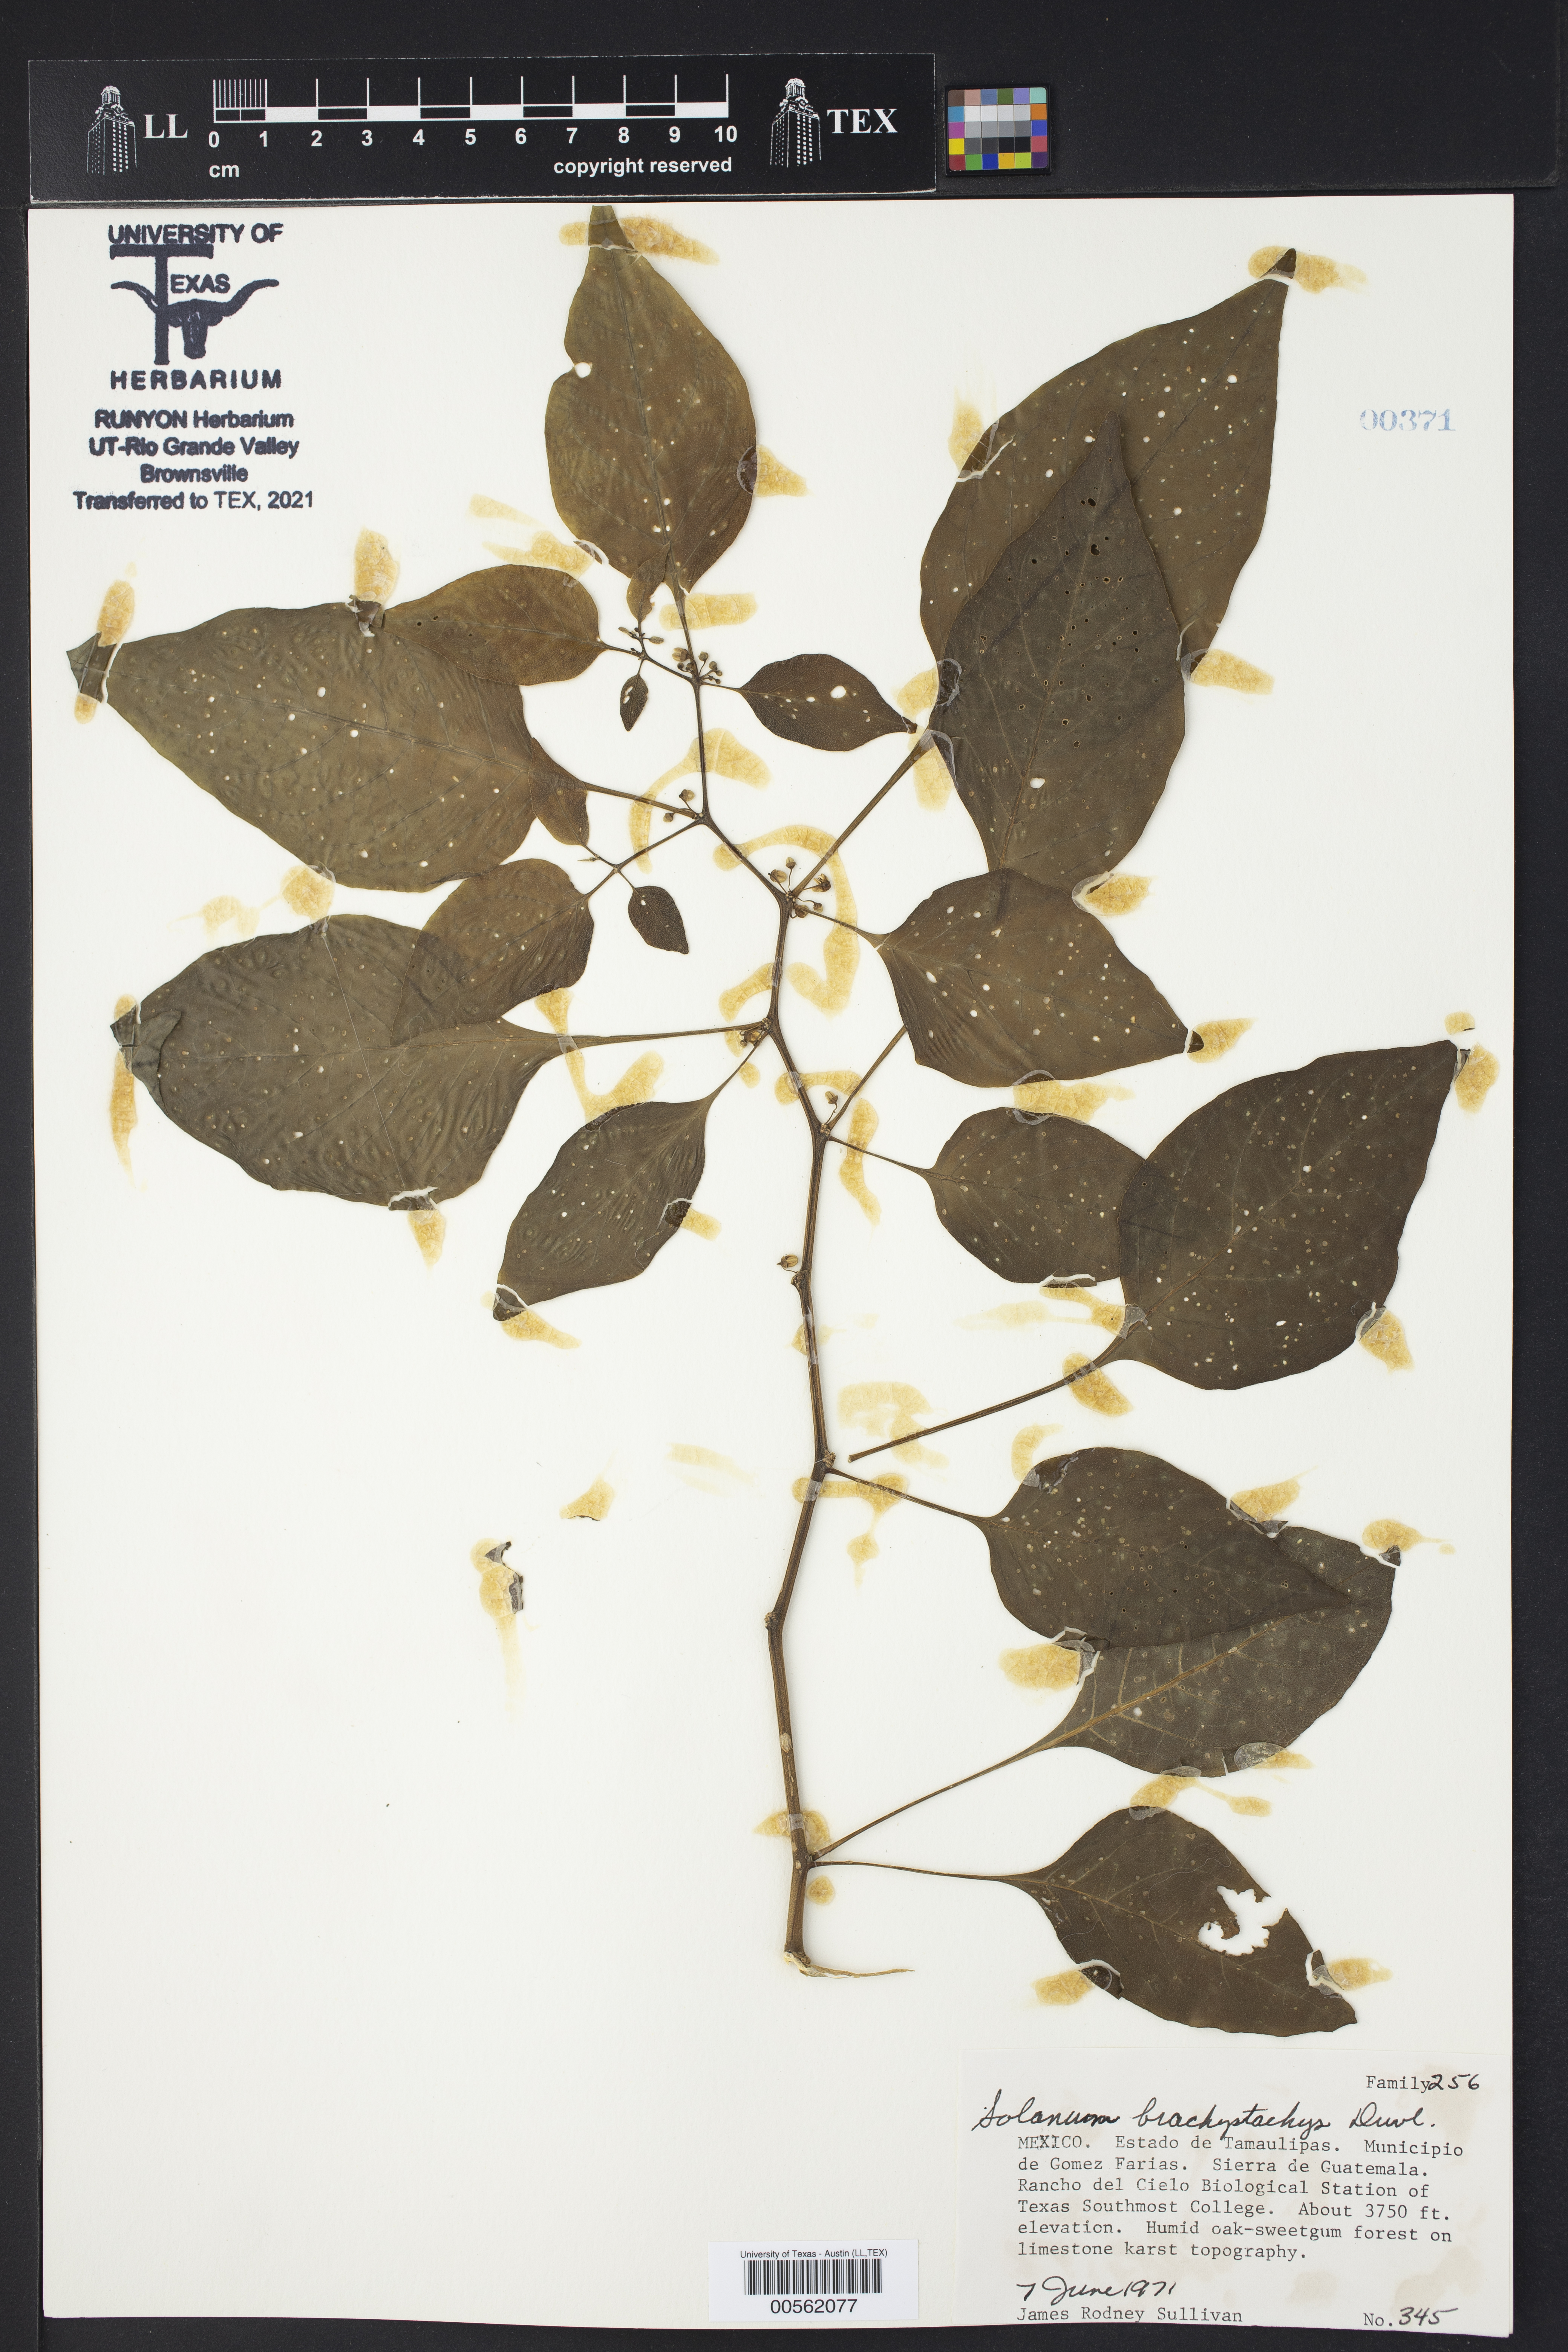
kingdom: Plantae
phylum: Tracheophyta
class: Magnoliopsida
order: Solanales
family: Solanaceae
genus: Solanum
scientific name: Solanum nigricans
